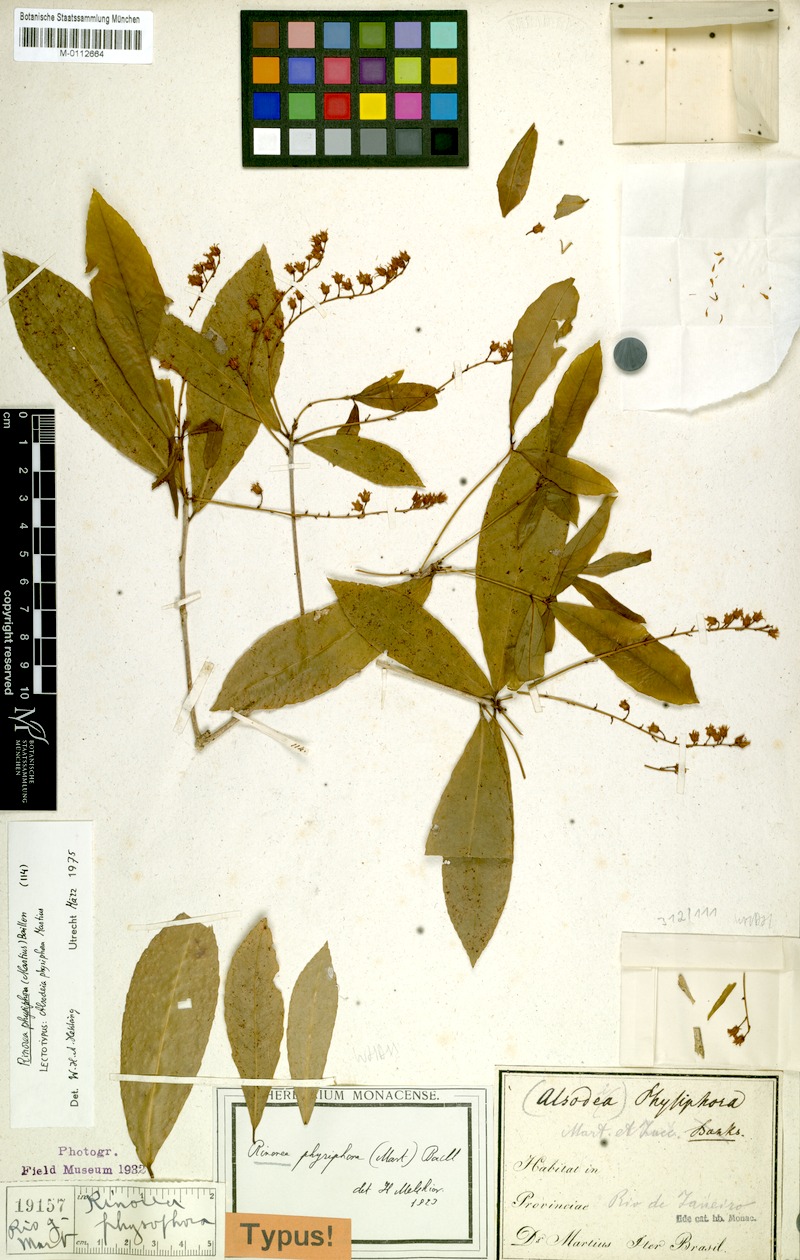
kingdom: Plantae
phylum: Tracheophyta
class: Magnoliopsida
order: Malpighiales
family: Violaceae
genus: Rinorea
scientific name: Rinorea laevigata
